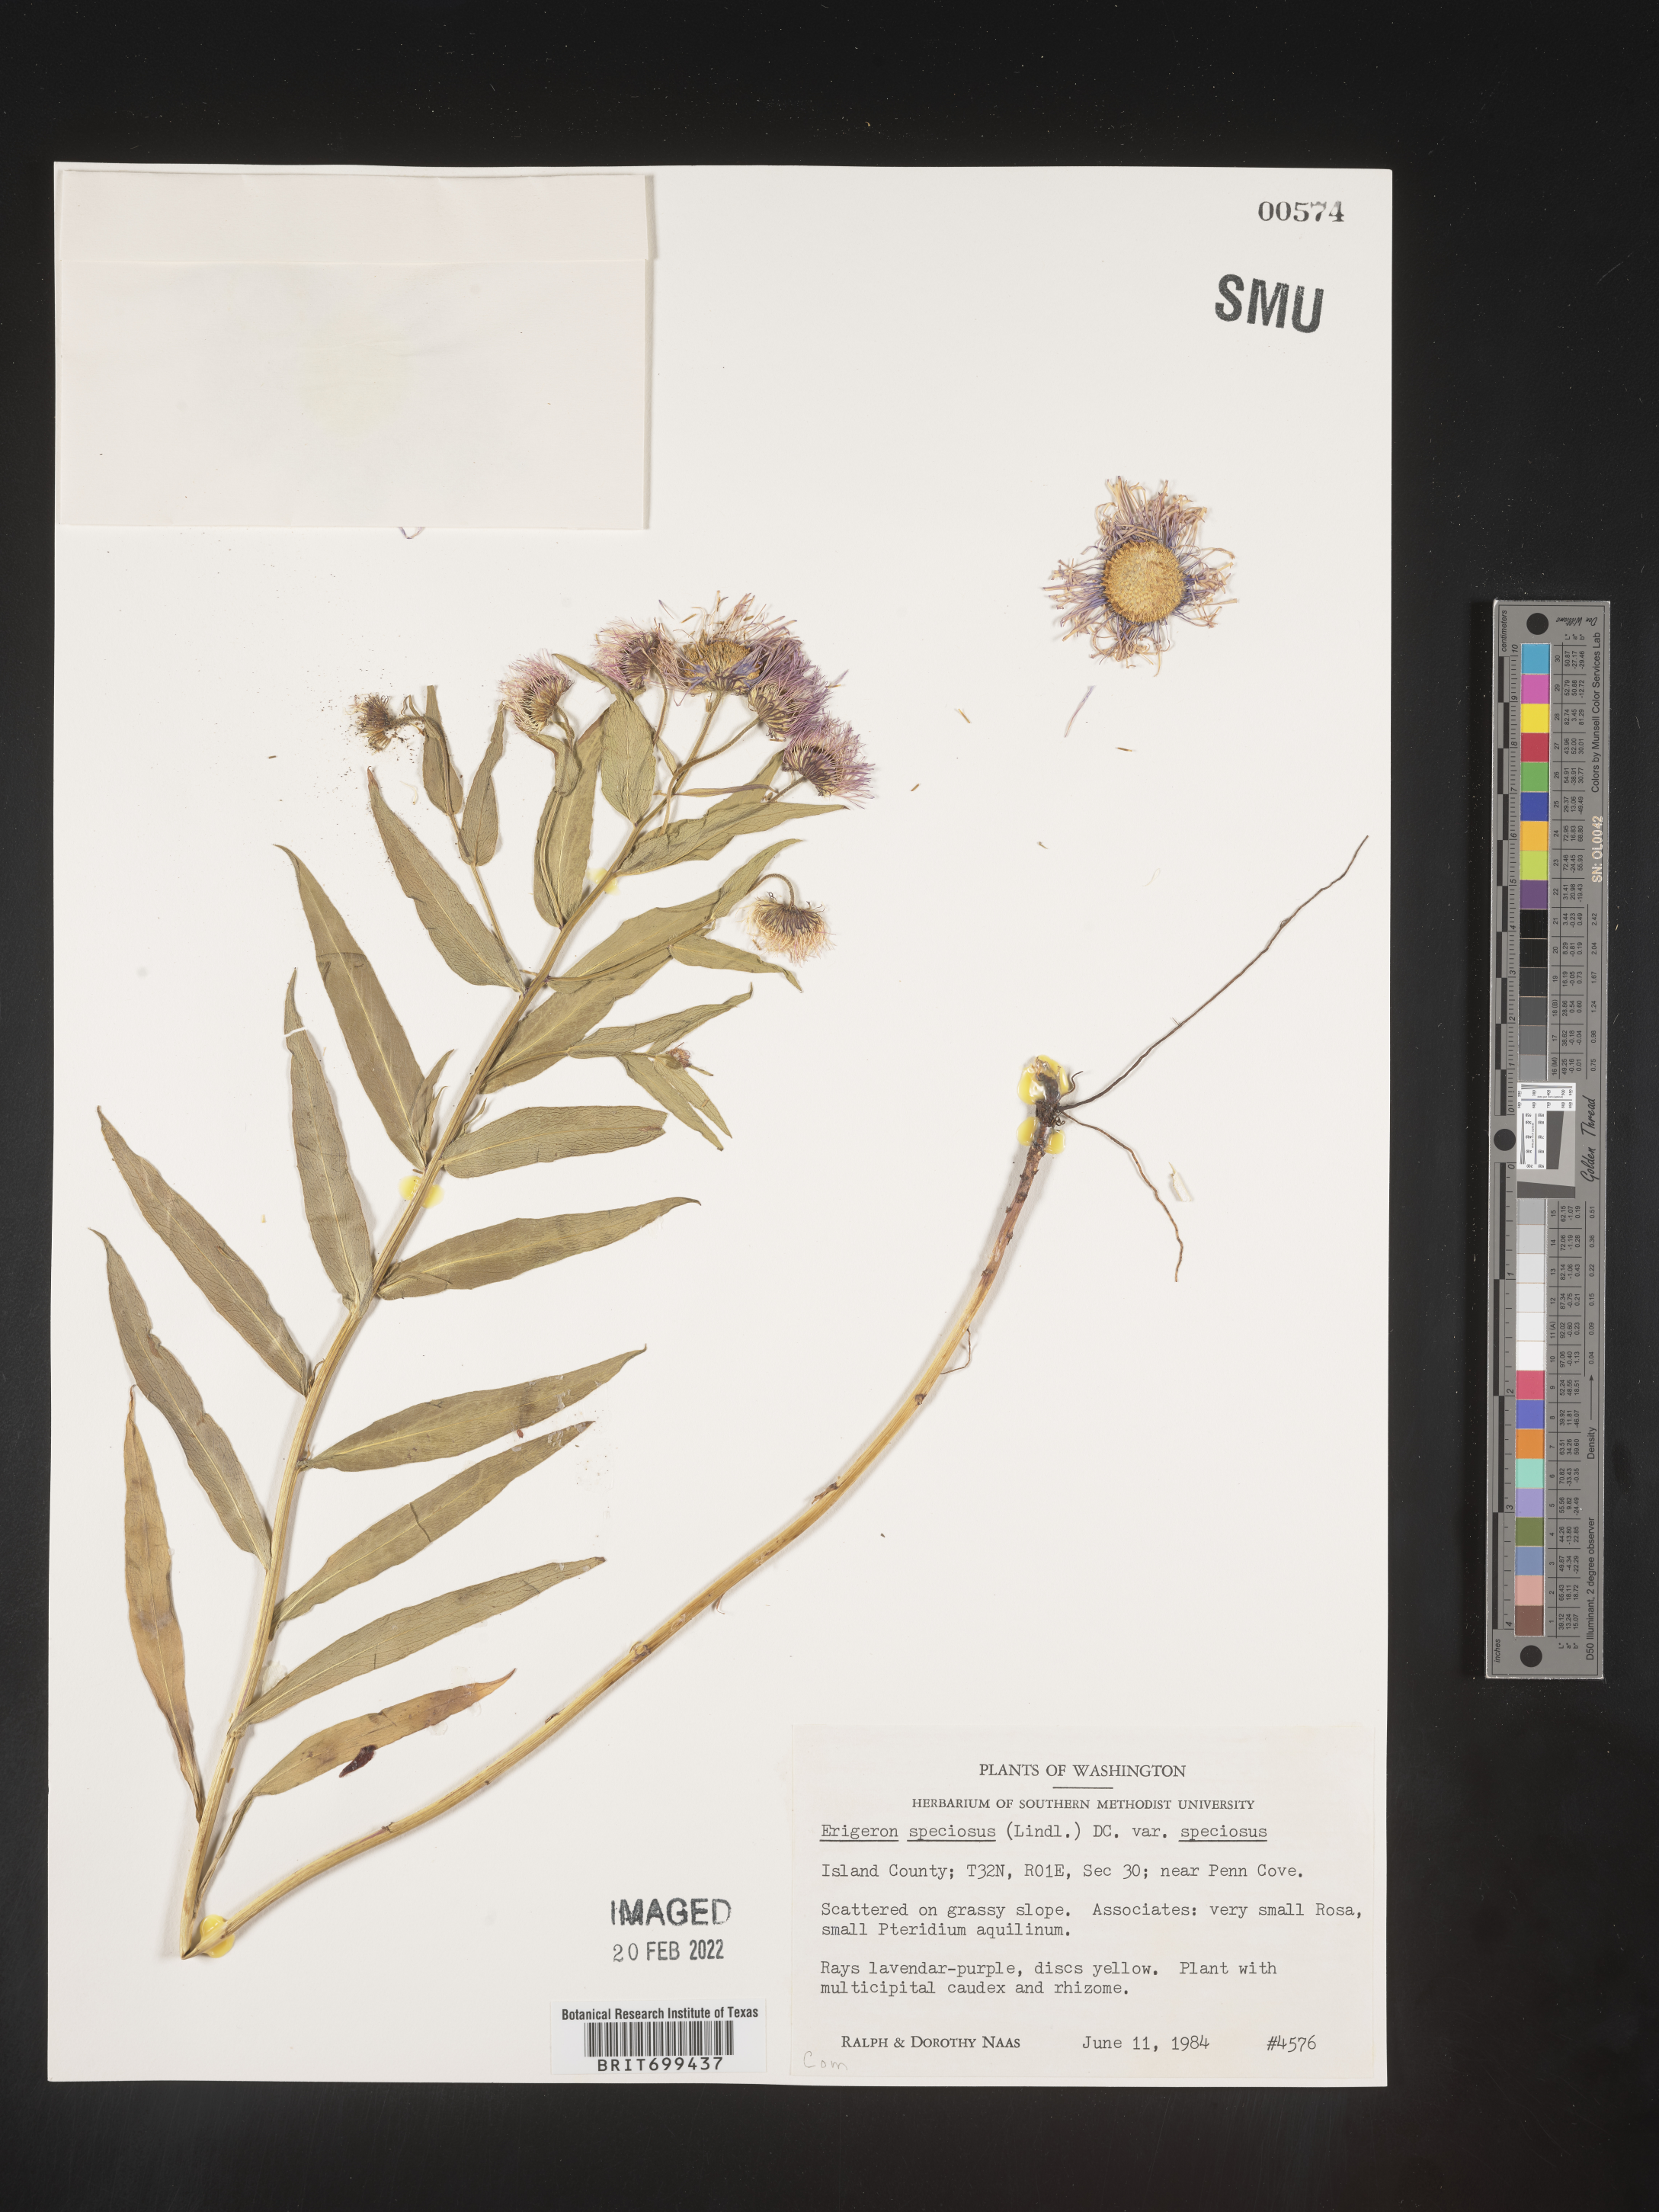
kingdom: Plantae
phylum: Tracheophyta
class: Magnoliopsida
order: Asterales
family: Asteraceae
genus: Erigeron
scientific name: Erigeron speciosus
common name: Aspen fleabane
